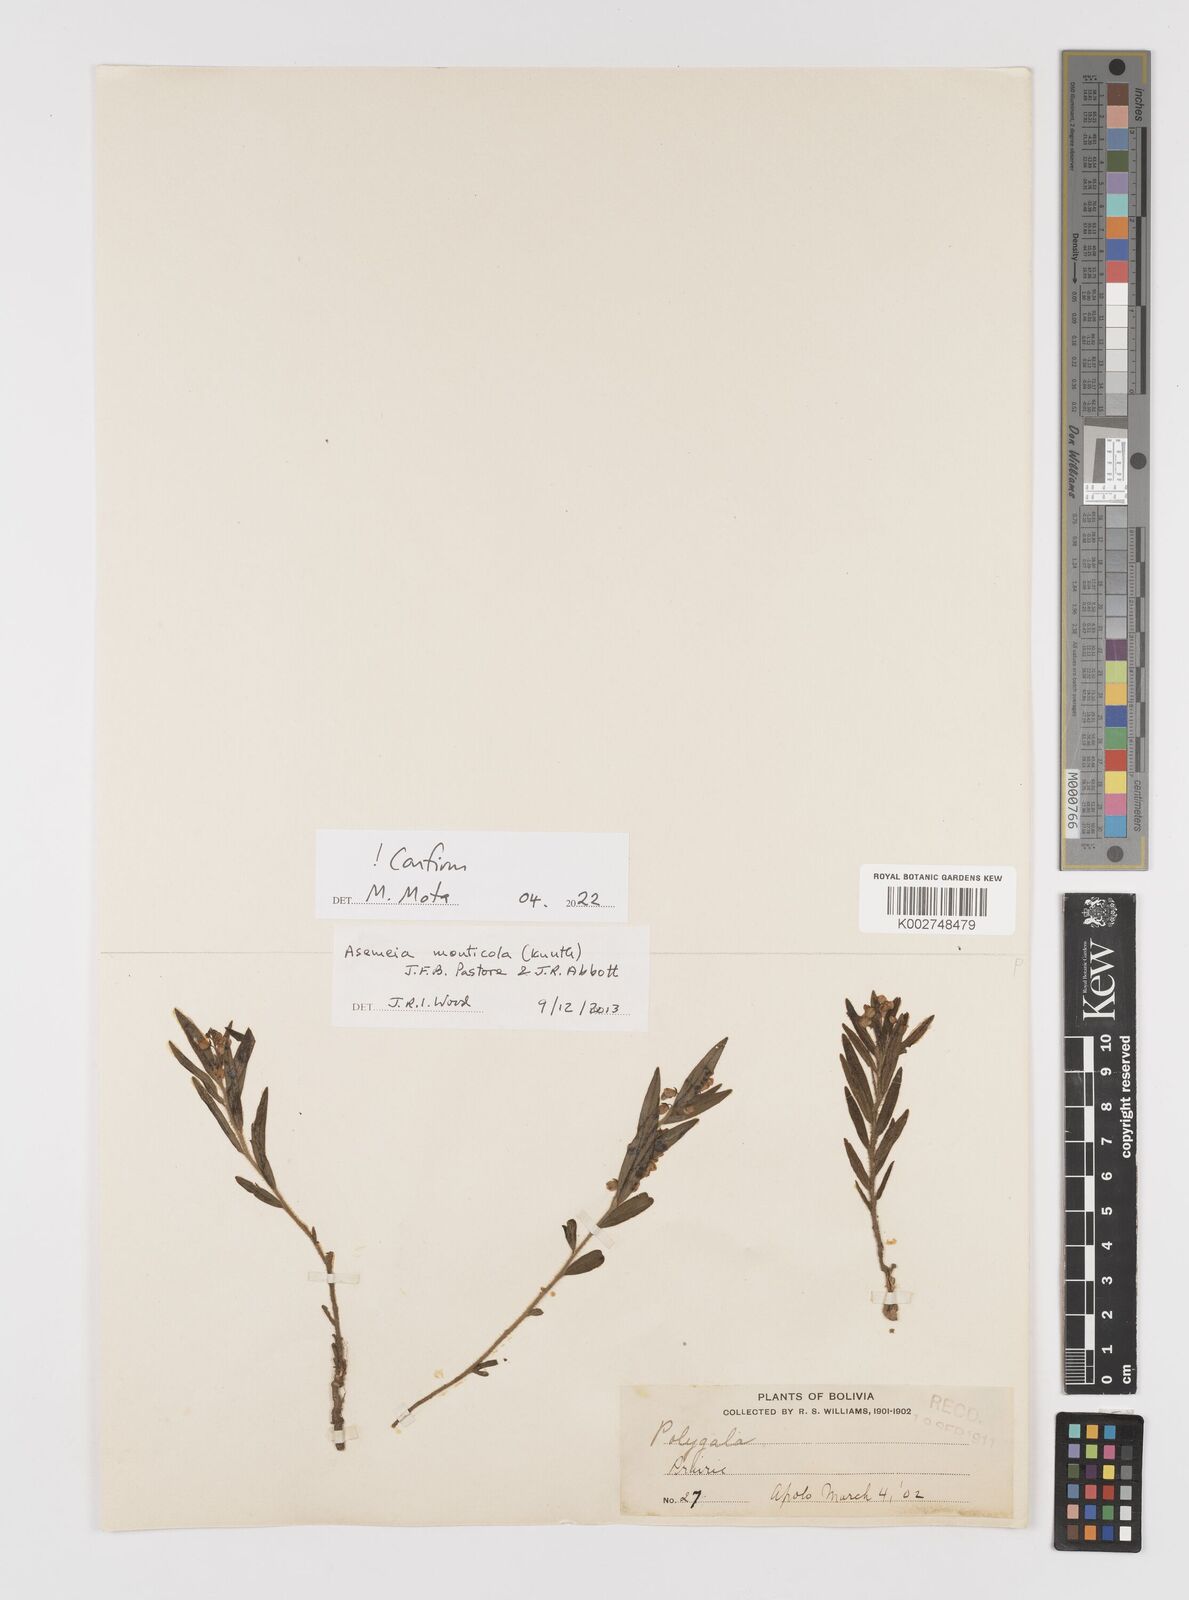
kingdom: Plantae
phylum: Tracheophyta
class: Magnoliopsida
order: Fabales
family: Polygalaceae
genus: Asemeia
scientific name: Asemeia monticola
